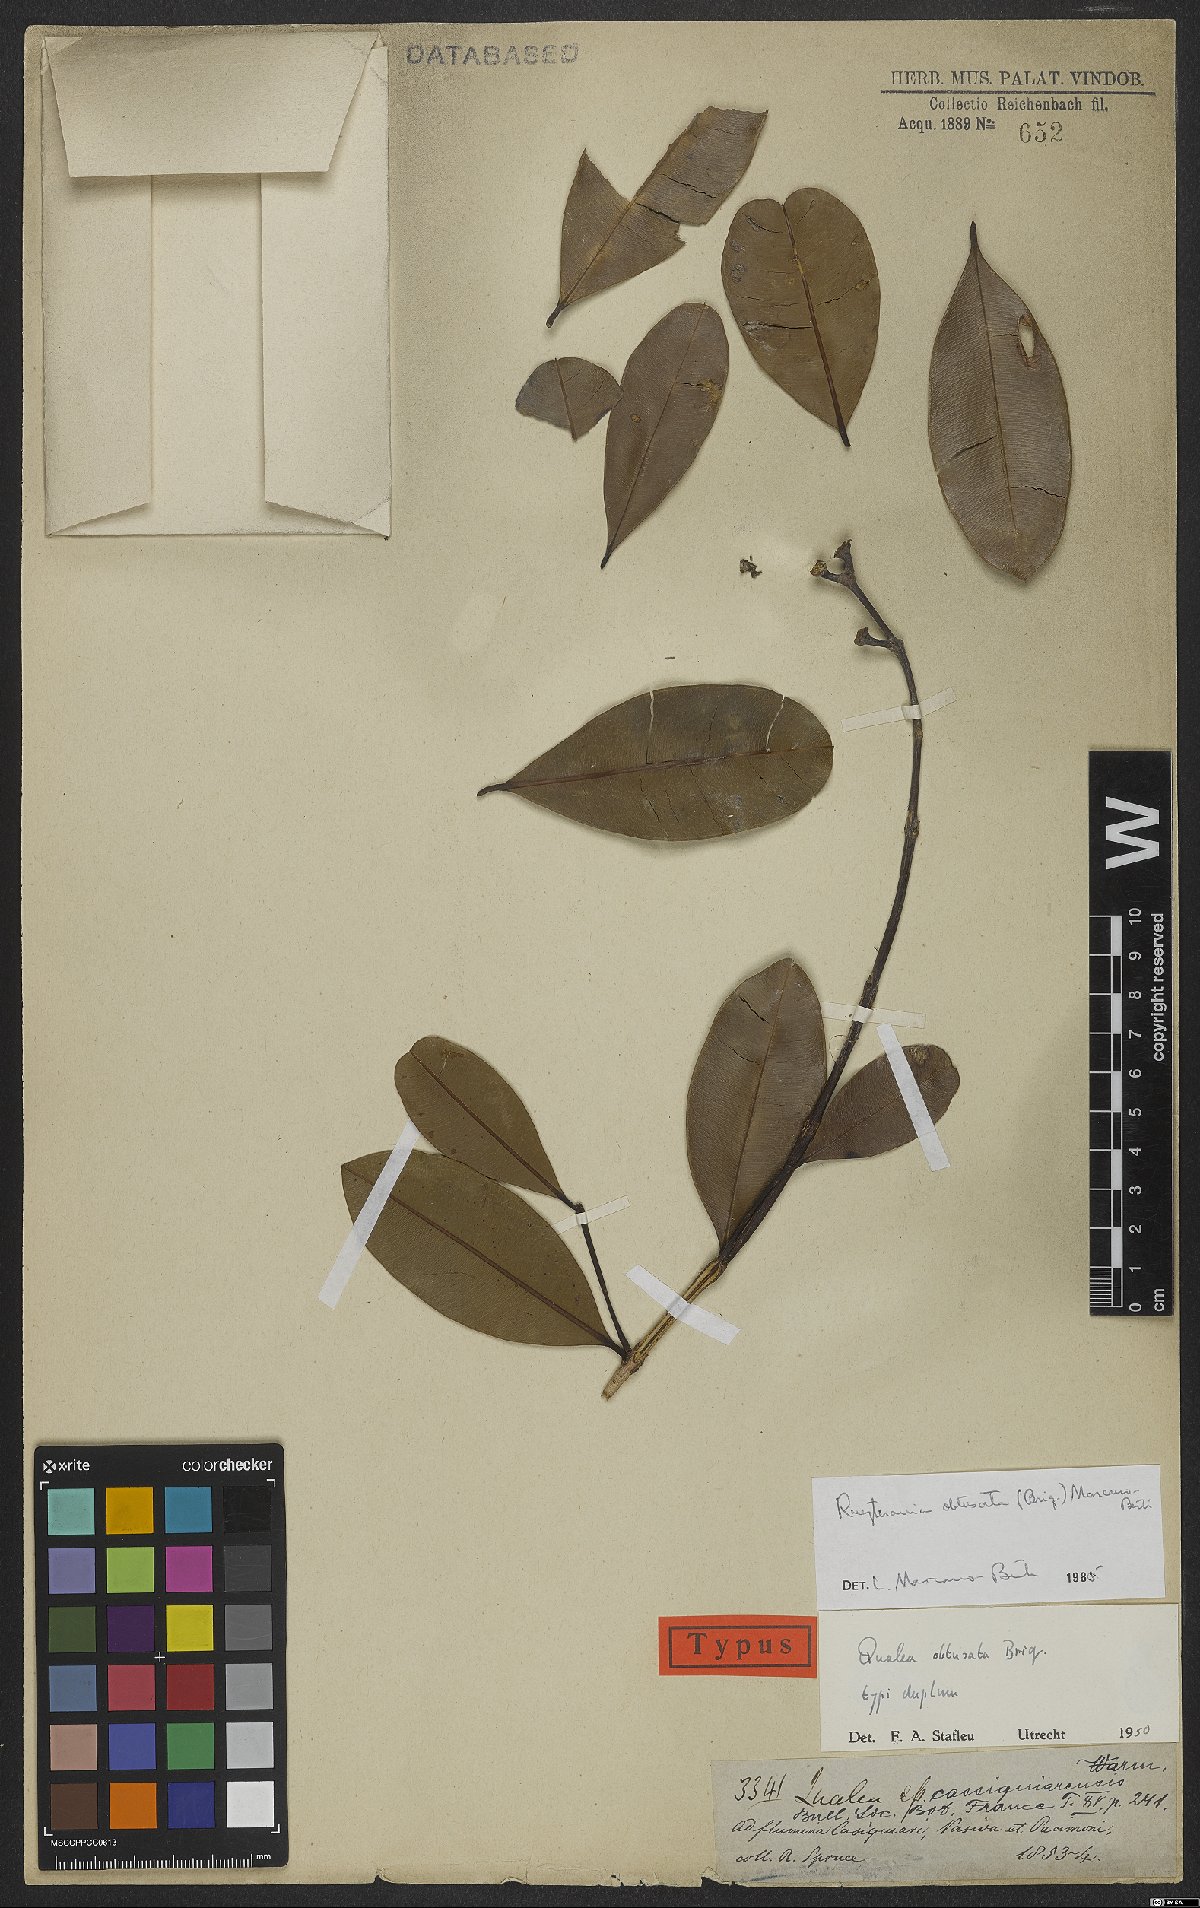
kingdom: Plantae
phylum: Tracheophyta
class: Magnoliopsida
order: Myrtales
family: Vochysiaceae
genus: Ruizterania
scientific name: Ruizterania obtusata
